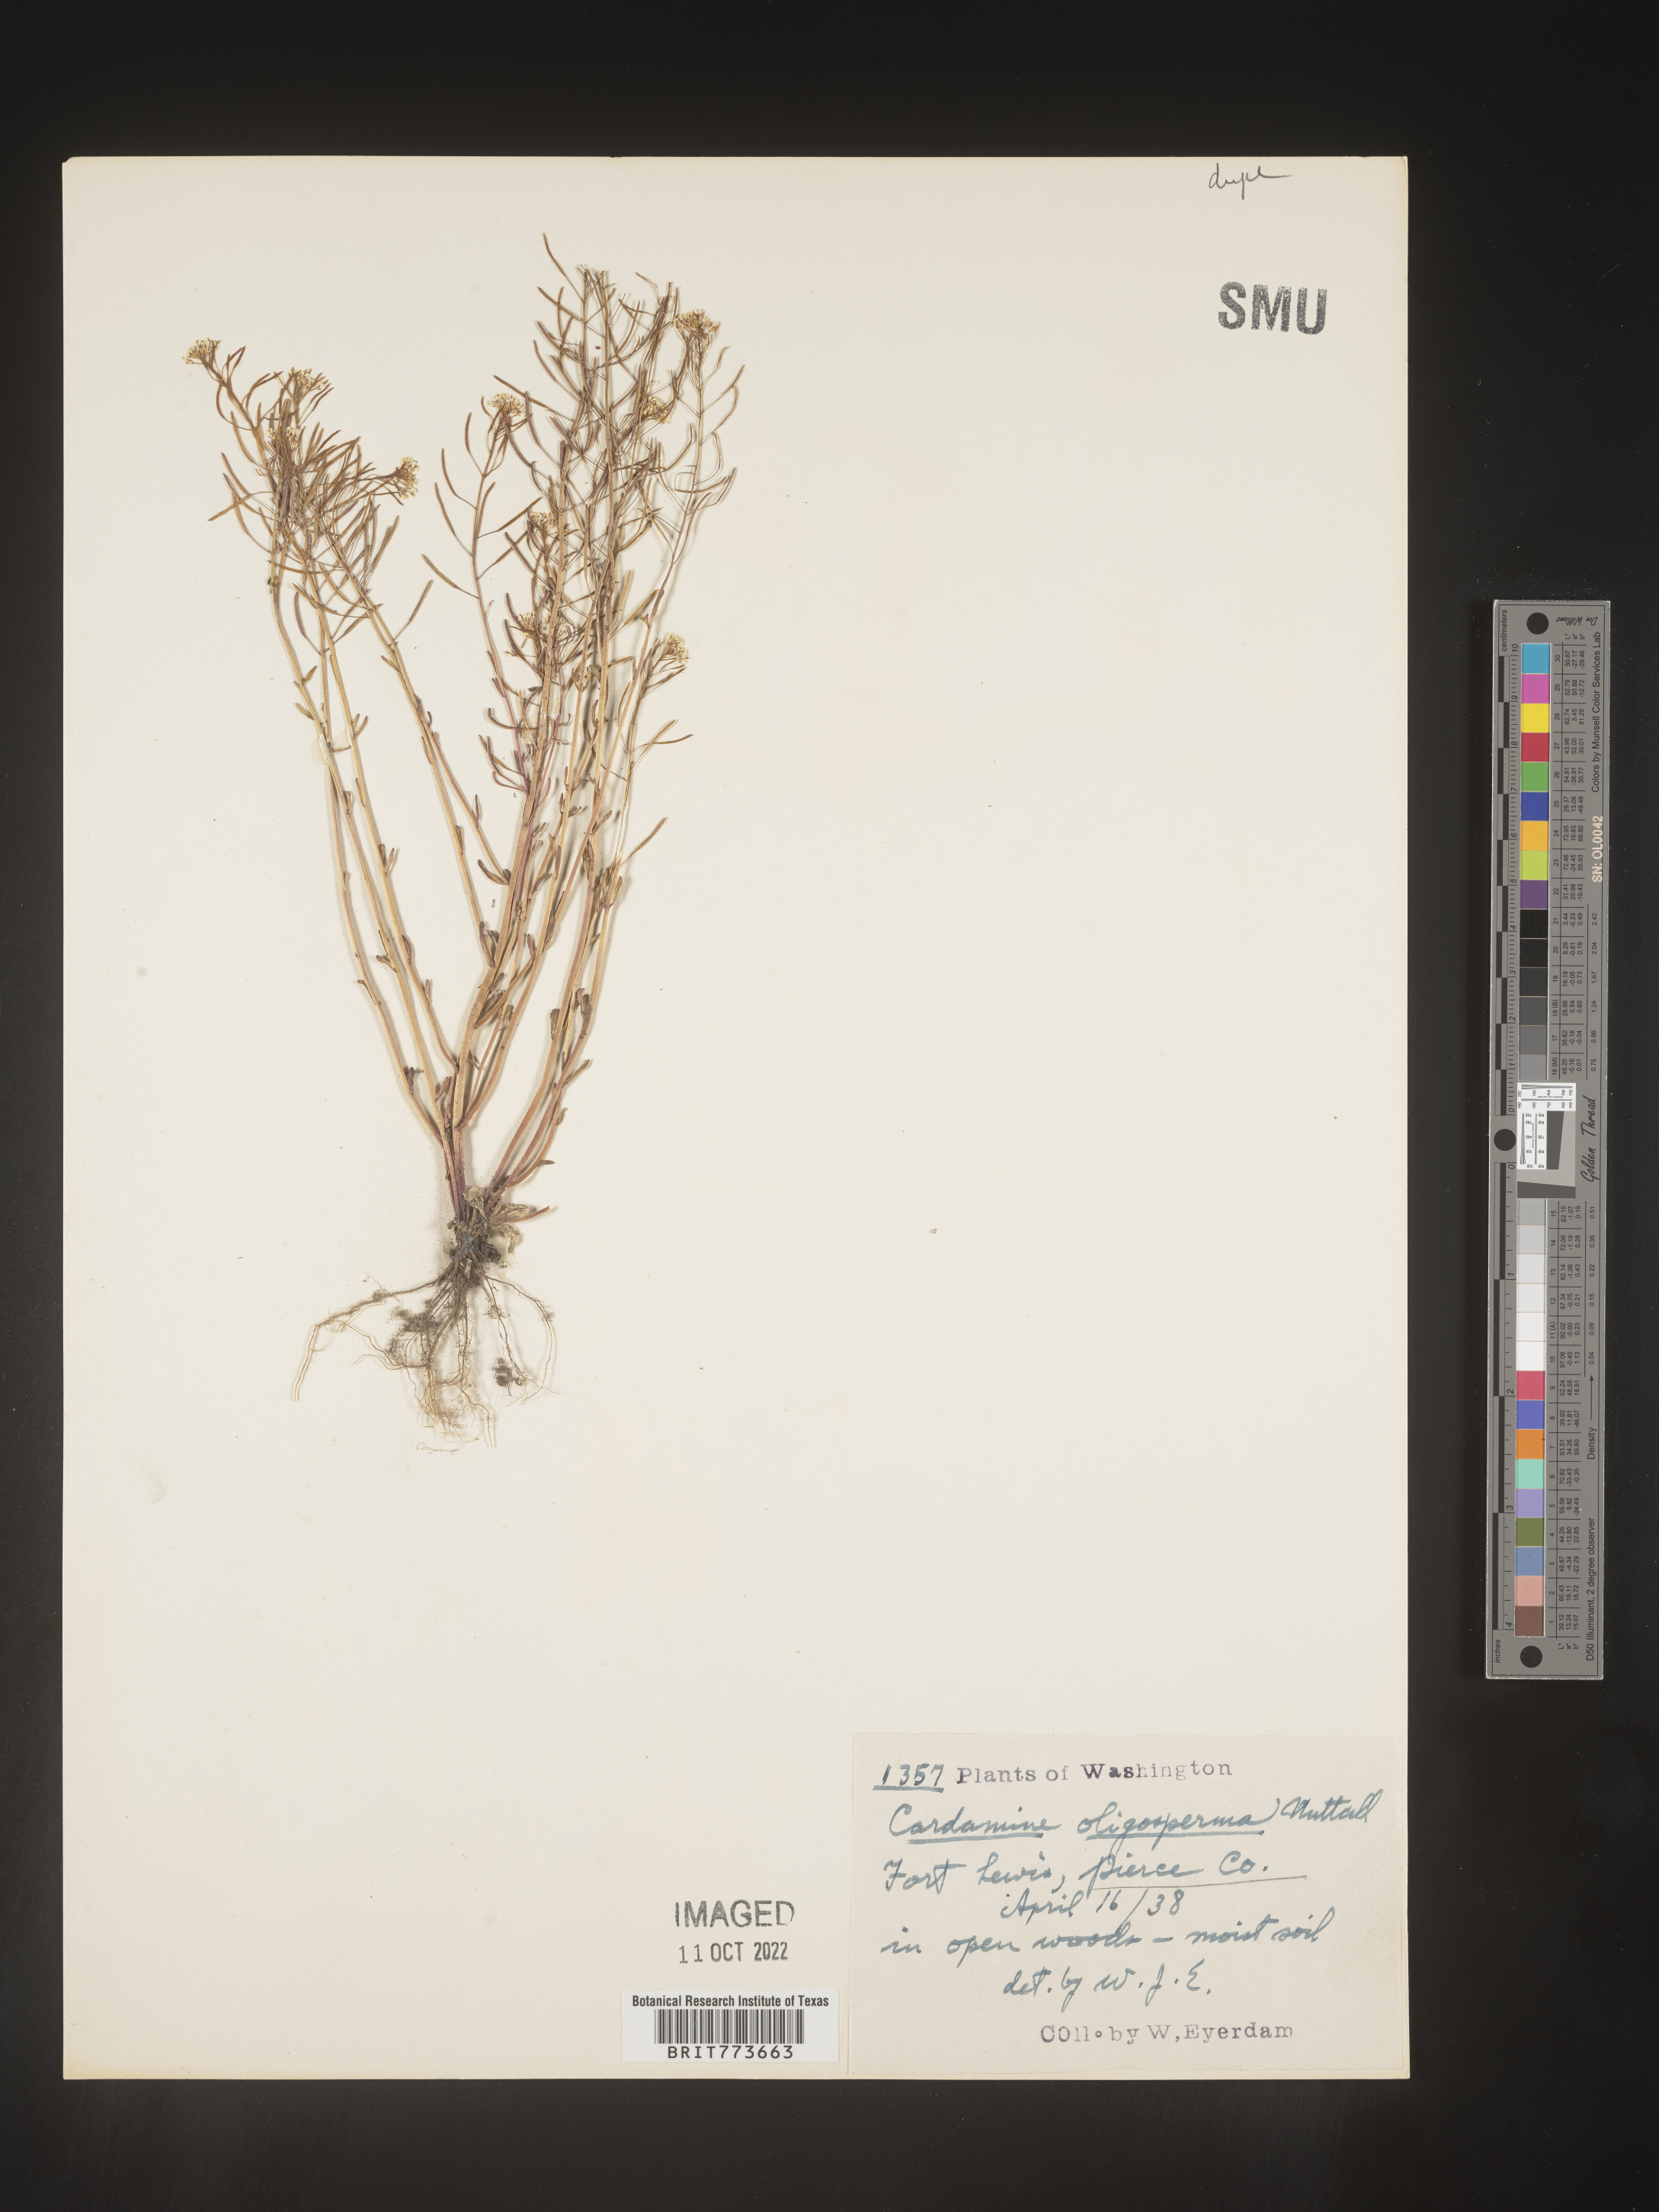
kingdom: Plantae
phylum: Tracheophyta
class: Magnoliopsida
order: Brassicales
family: Brassicaceae
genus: Cardamine
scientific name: Cardamine
